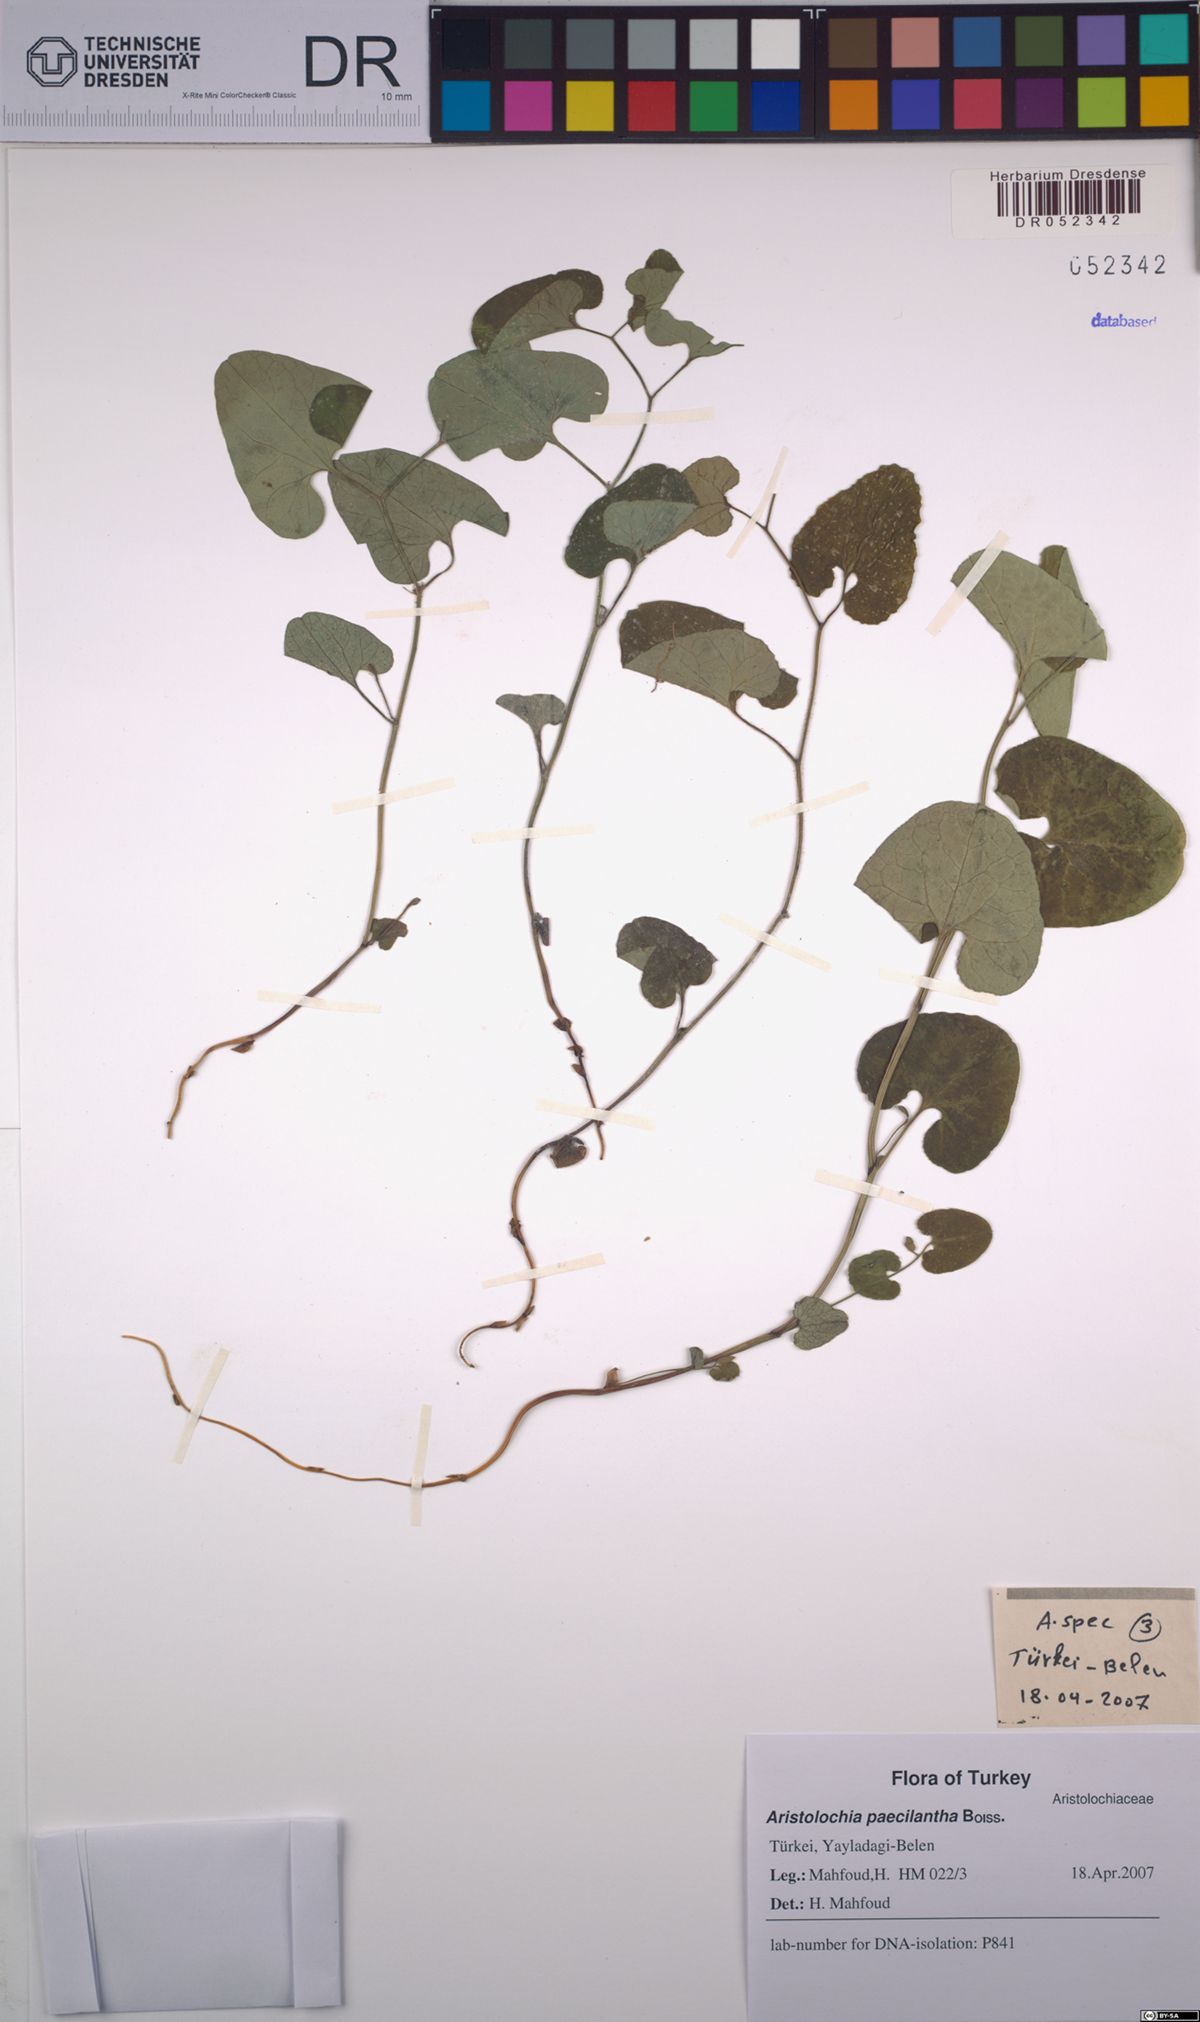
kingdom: Plantae
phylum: Tracheophyta
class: Magnoliopsida
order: Piperales
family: Aristolochiaceae
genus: Aristolochia
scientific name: Aristolochia paecilantha
